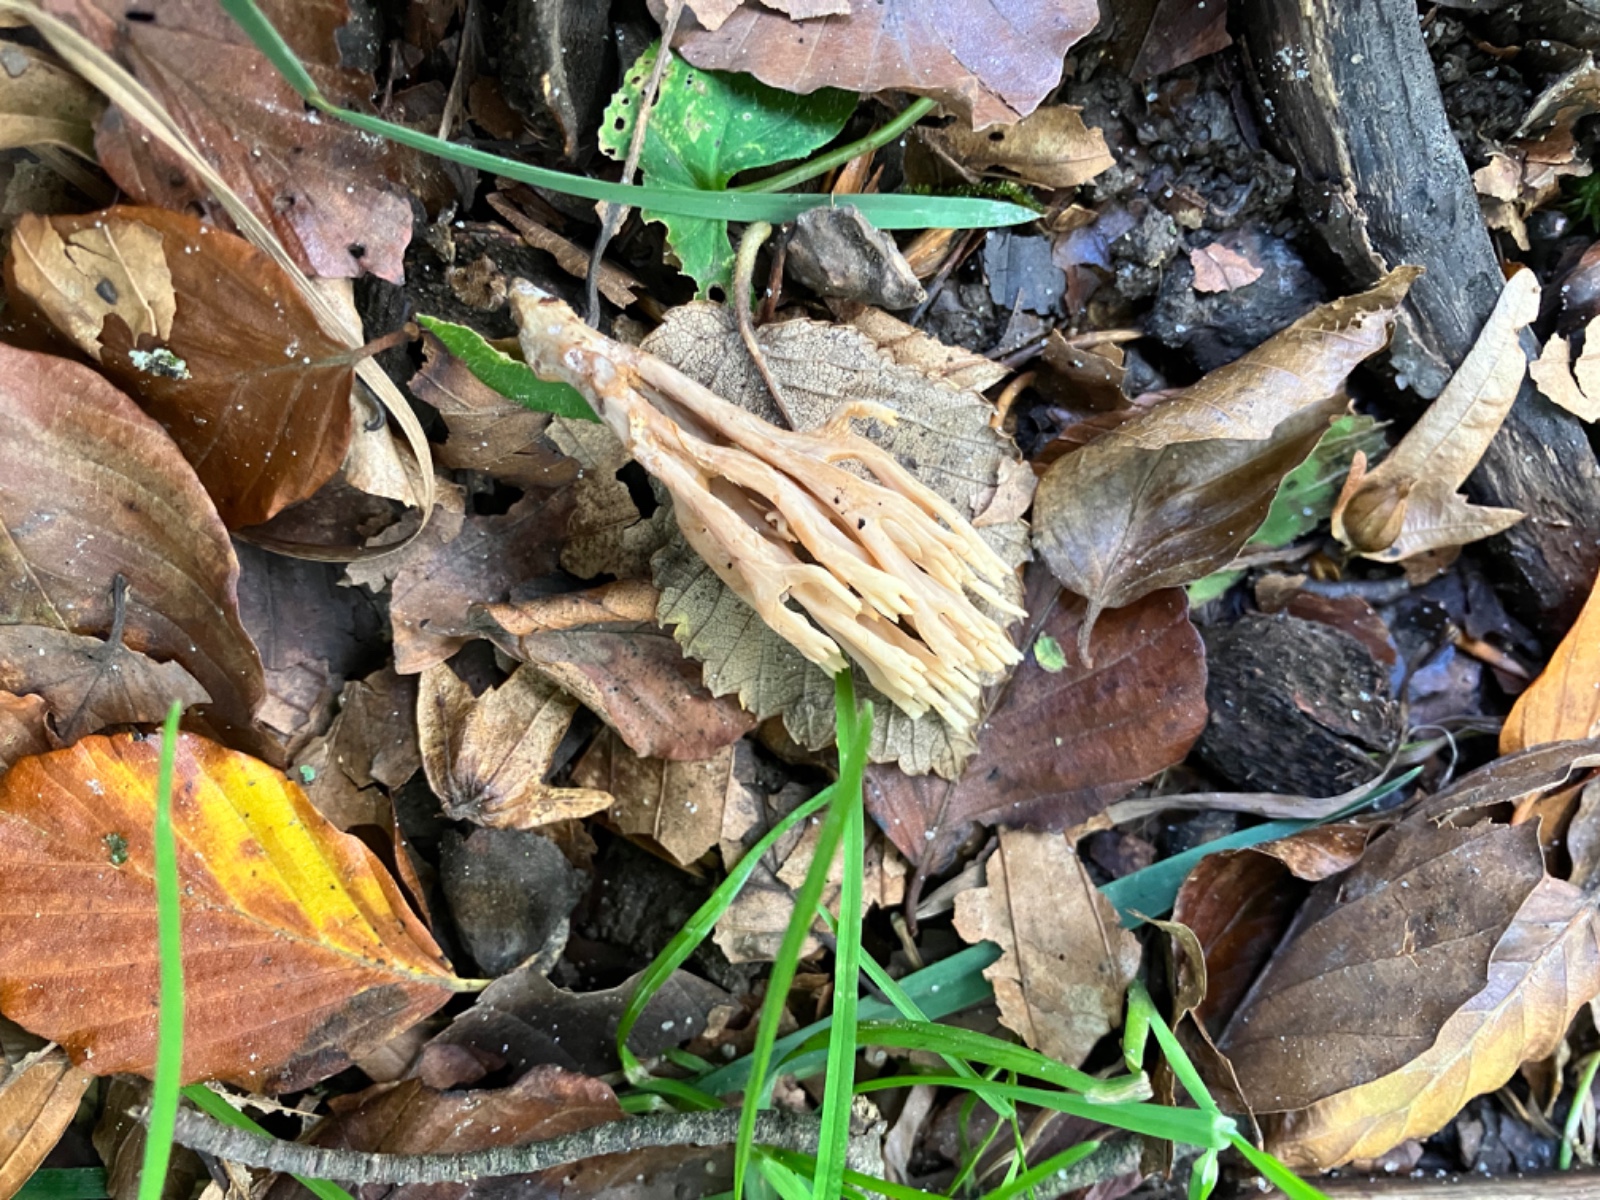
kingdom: Fungi
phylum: Basidiomycota
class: Agaricomycetes
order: Gomphales
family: Gomphaceae
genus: Ramaria
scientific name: Ramaria stricta
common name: rank koralsvamp
